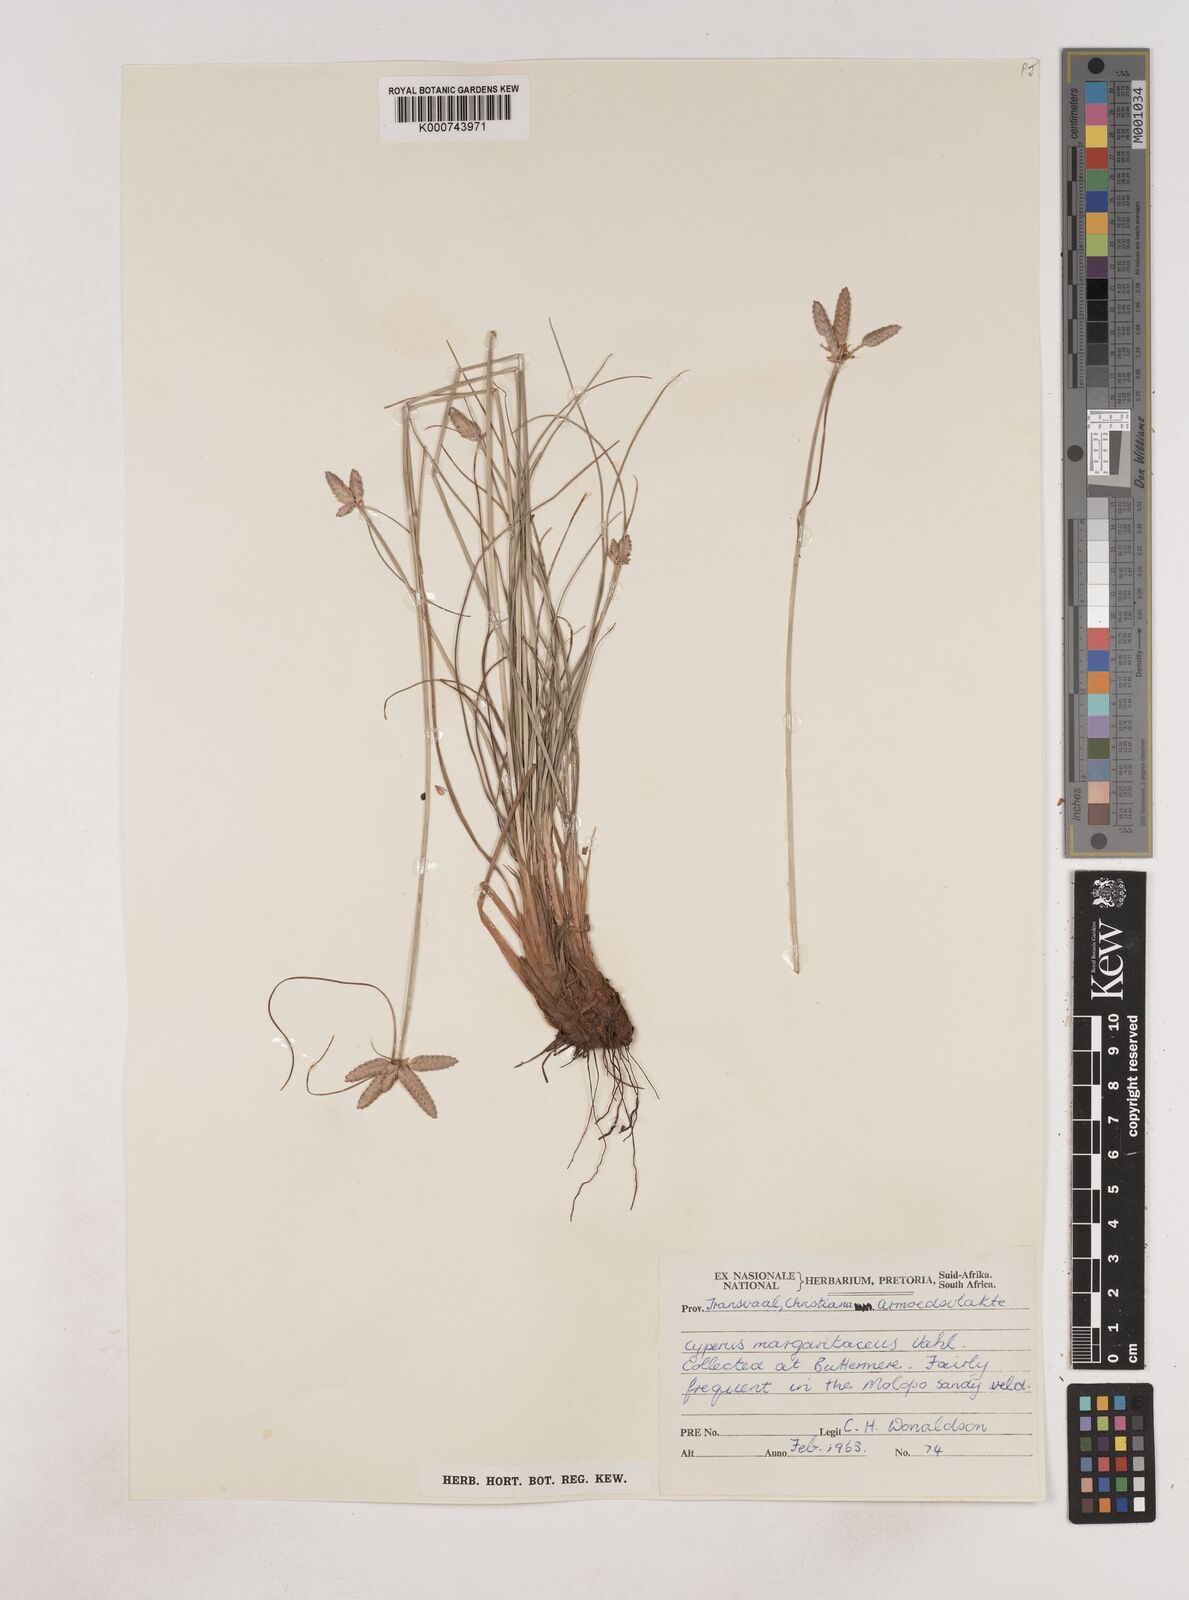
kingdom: Plantae
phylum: Tracheophyta
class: Liliopsida
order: Poales
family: Cyperaceae
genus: Cyperus
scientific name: Cyperus margaritaceus
